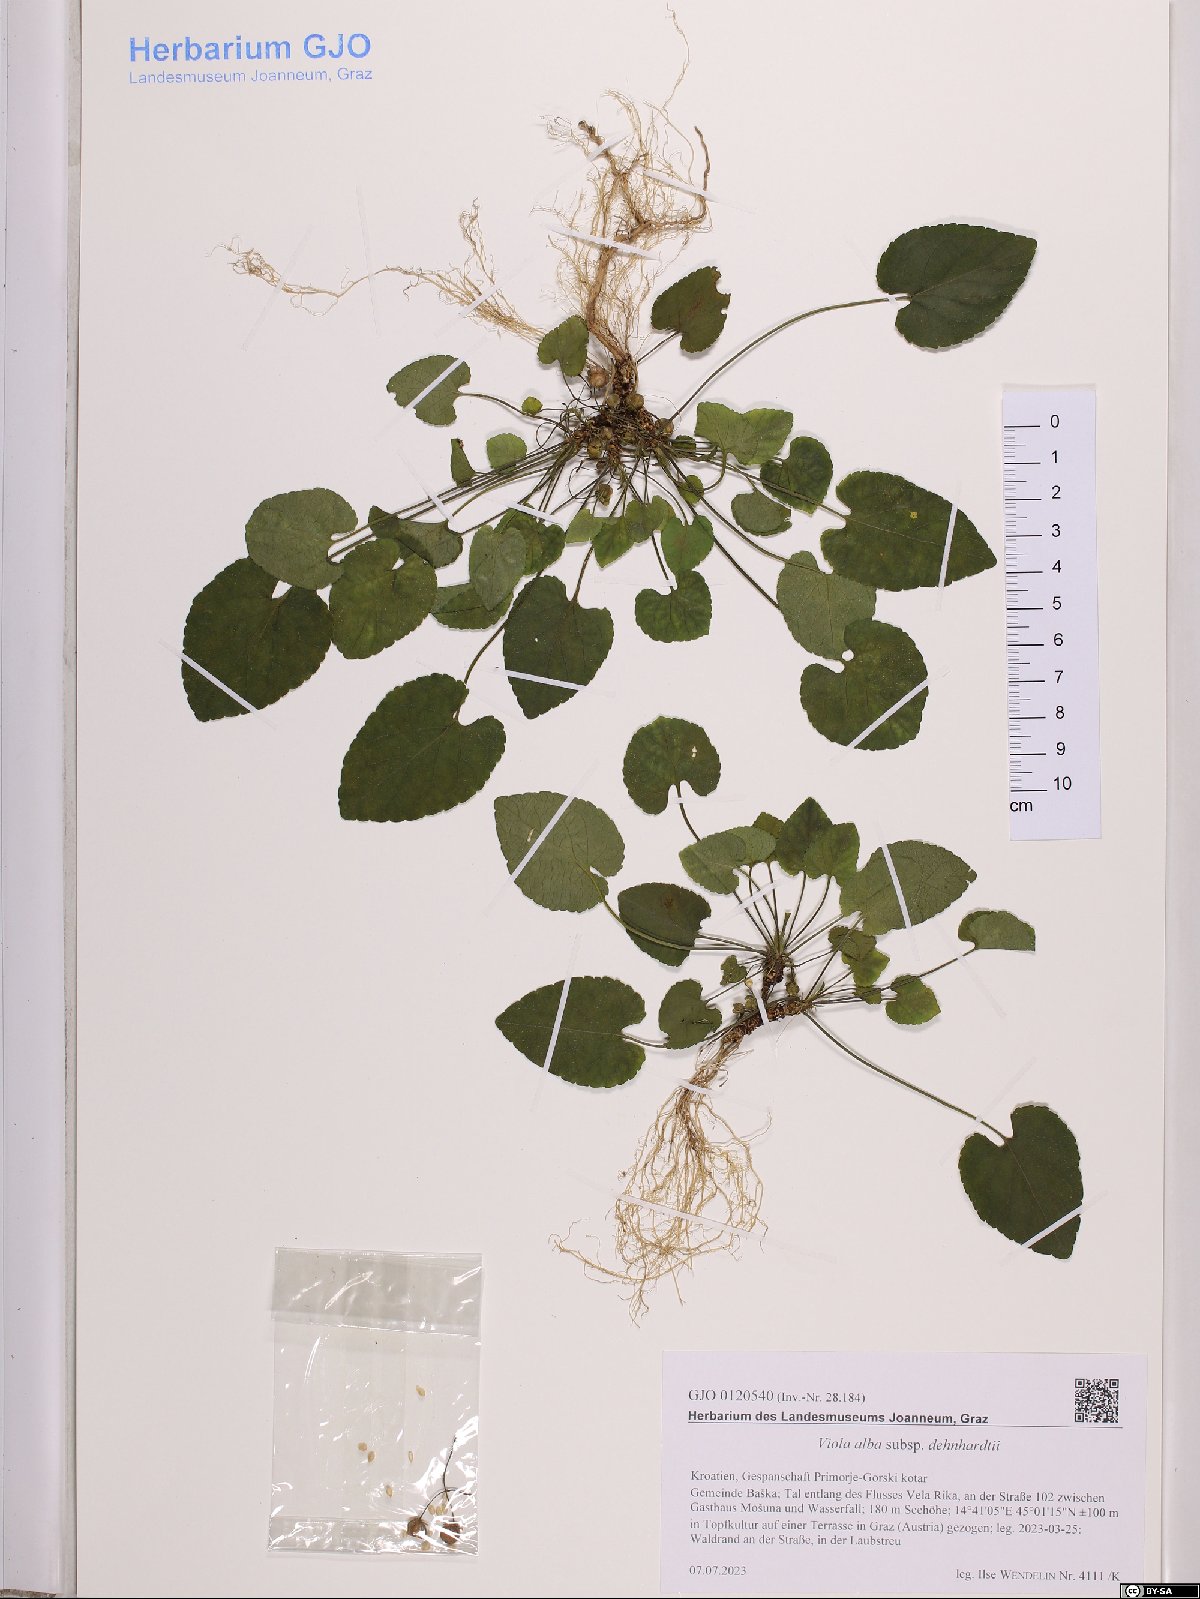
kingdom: Plantae
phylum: Tracheophyta
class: Magnoliopsida
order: Malpighiales
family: Violaceae
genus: Viola
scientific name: Viola alba
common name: White violet
